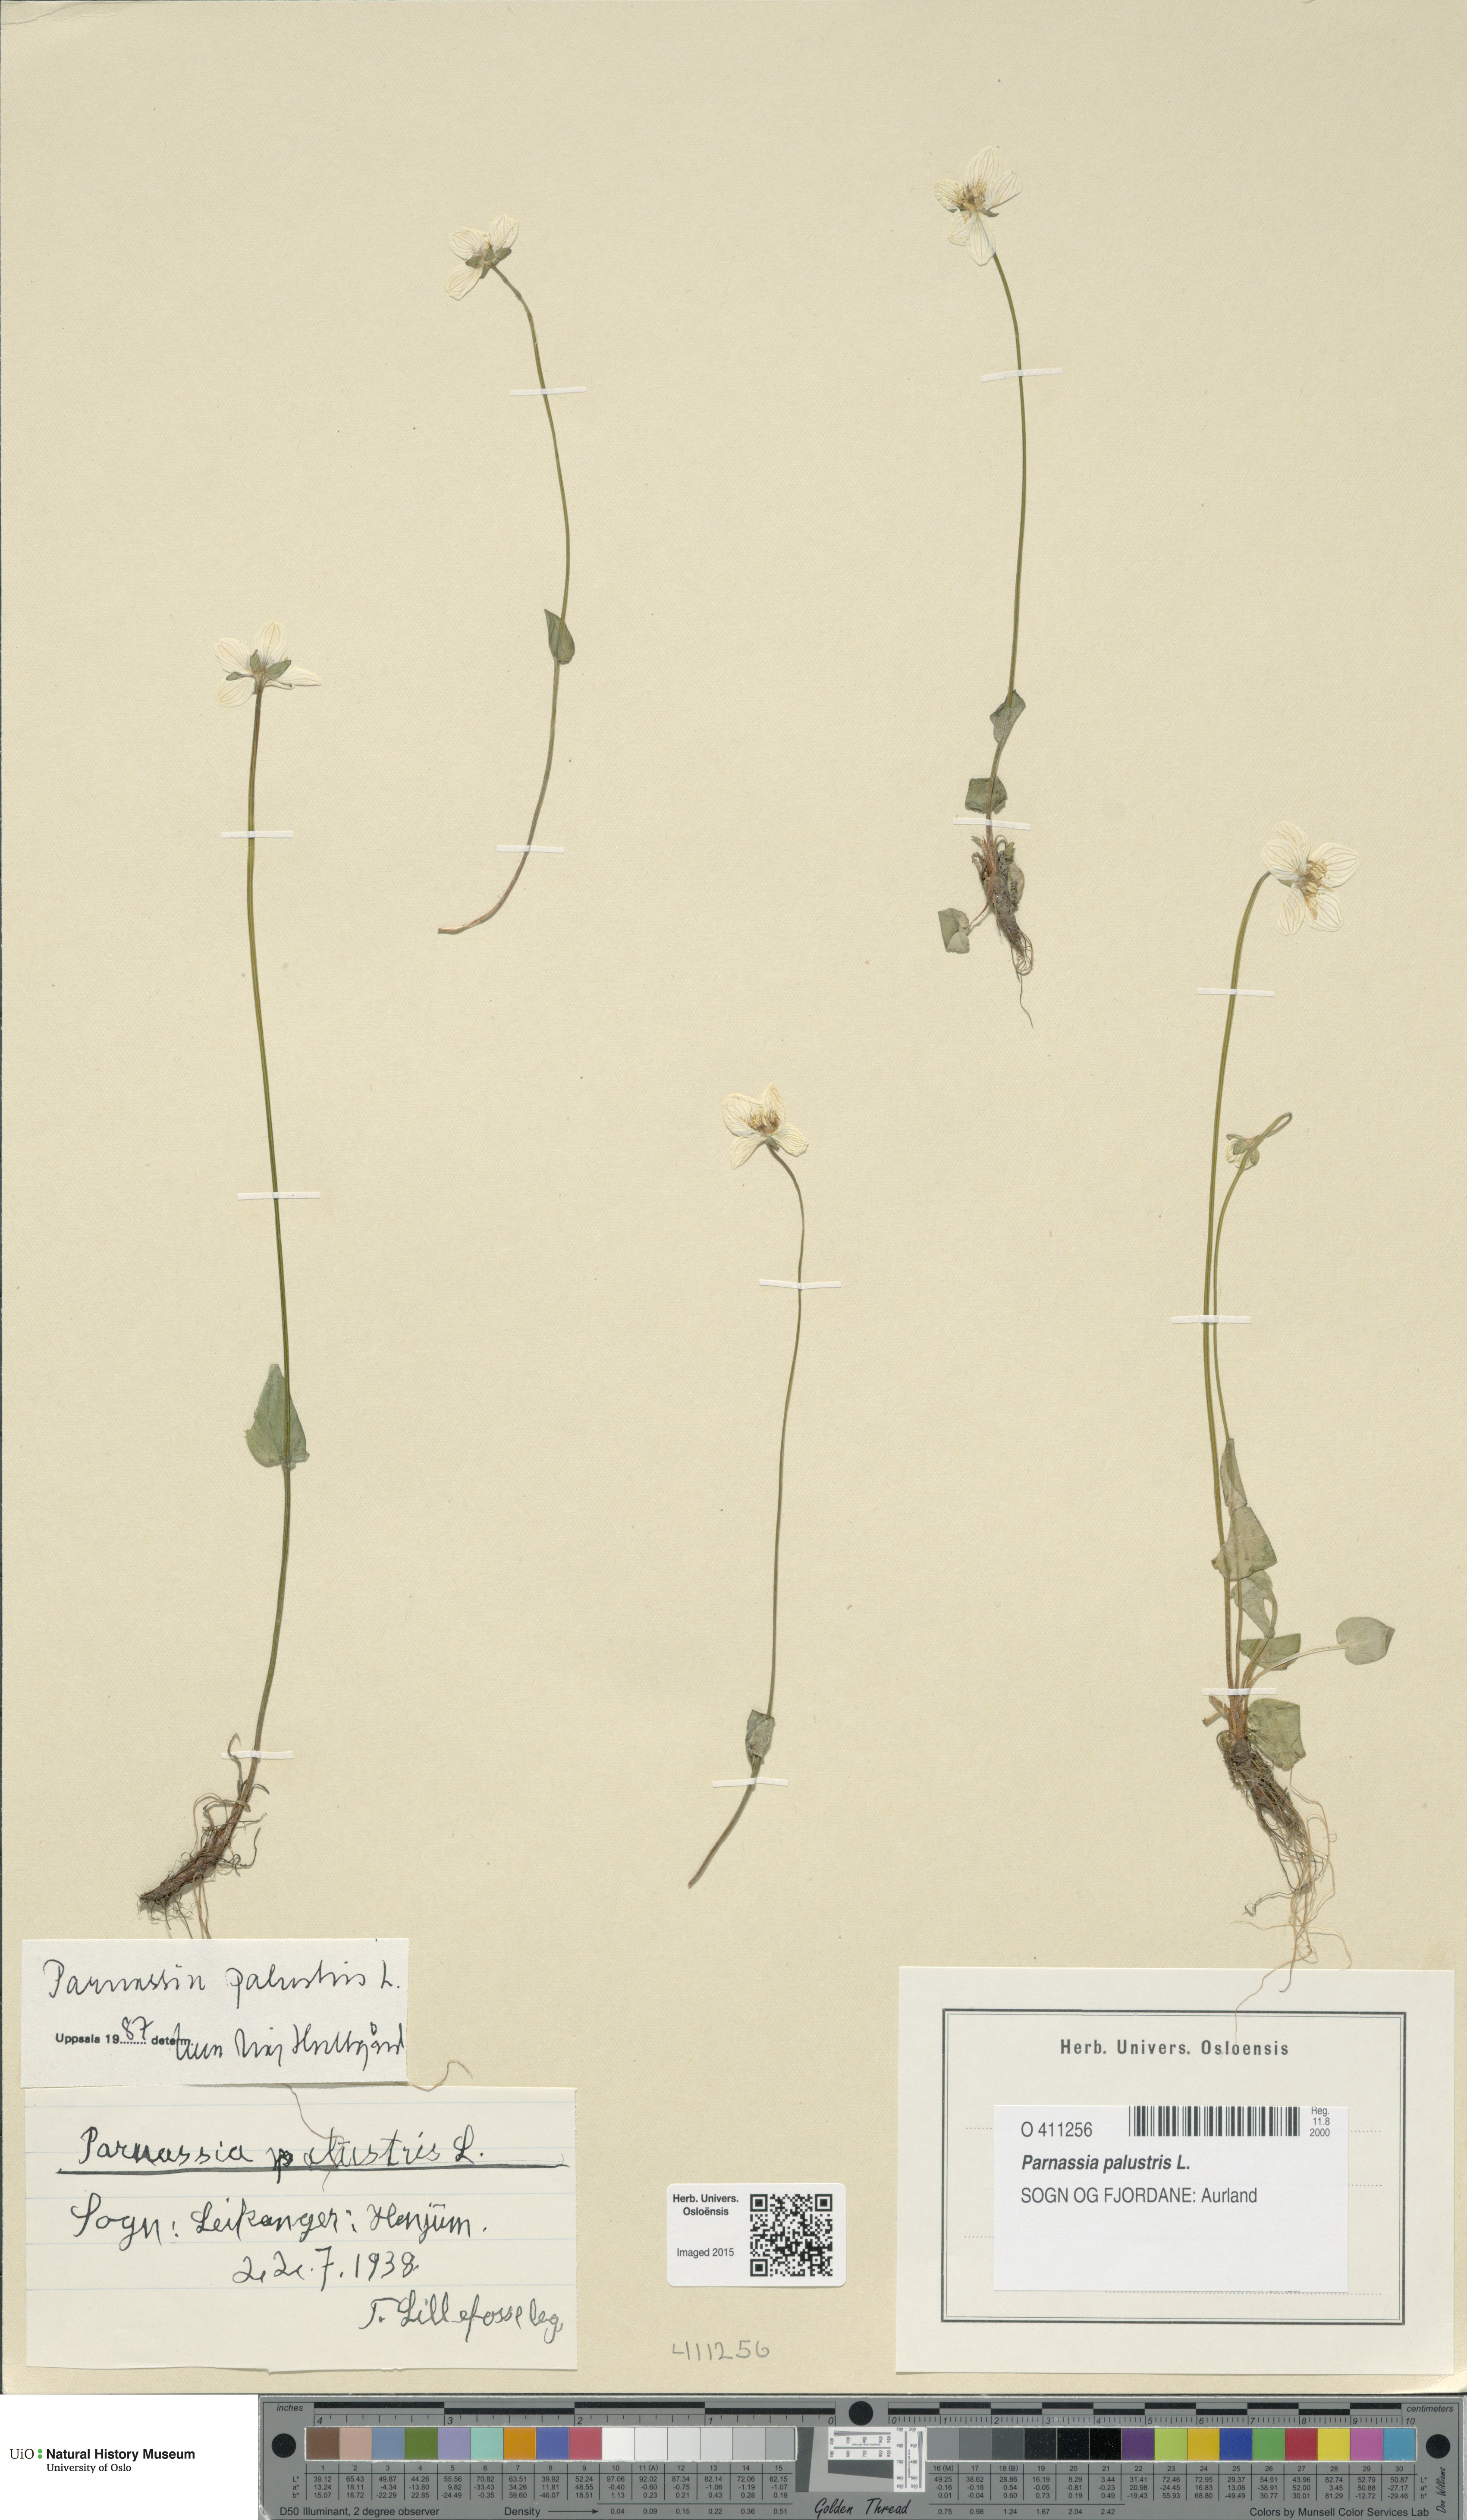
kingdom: Plantae
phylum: Tracheophyta
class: Magnoliopsida
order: Celastrales
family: Parnassiaceae
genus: Parnassia
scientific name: Parnassia palustris
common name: Grass-of-parnassus
